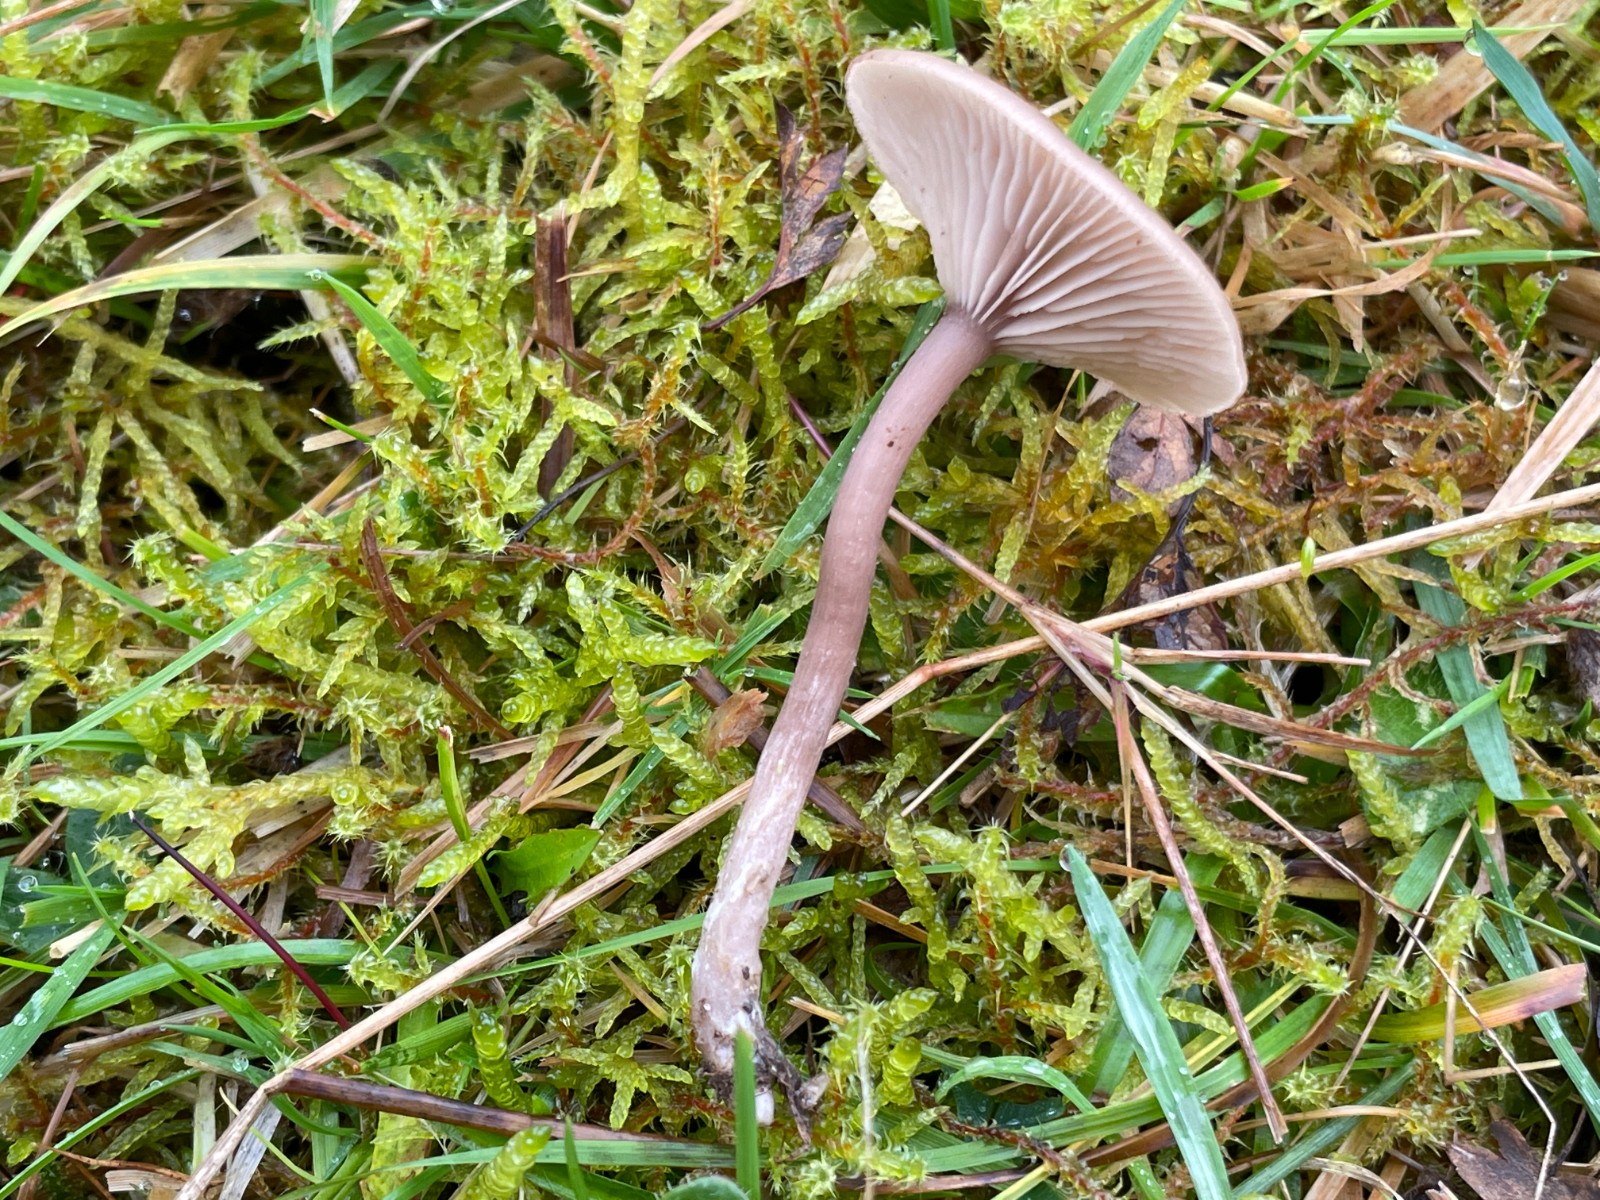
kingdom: Fungi
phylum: Basidiomycota
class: Agaricomycetes
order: Agaricales
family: Pseudoclitocybaceae
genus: Pseudoclitocybe
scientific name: Pseudoclitocybe expallens
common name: lille bægertragthat
